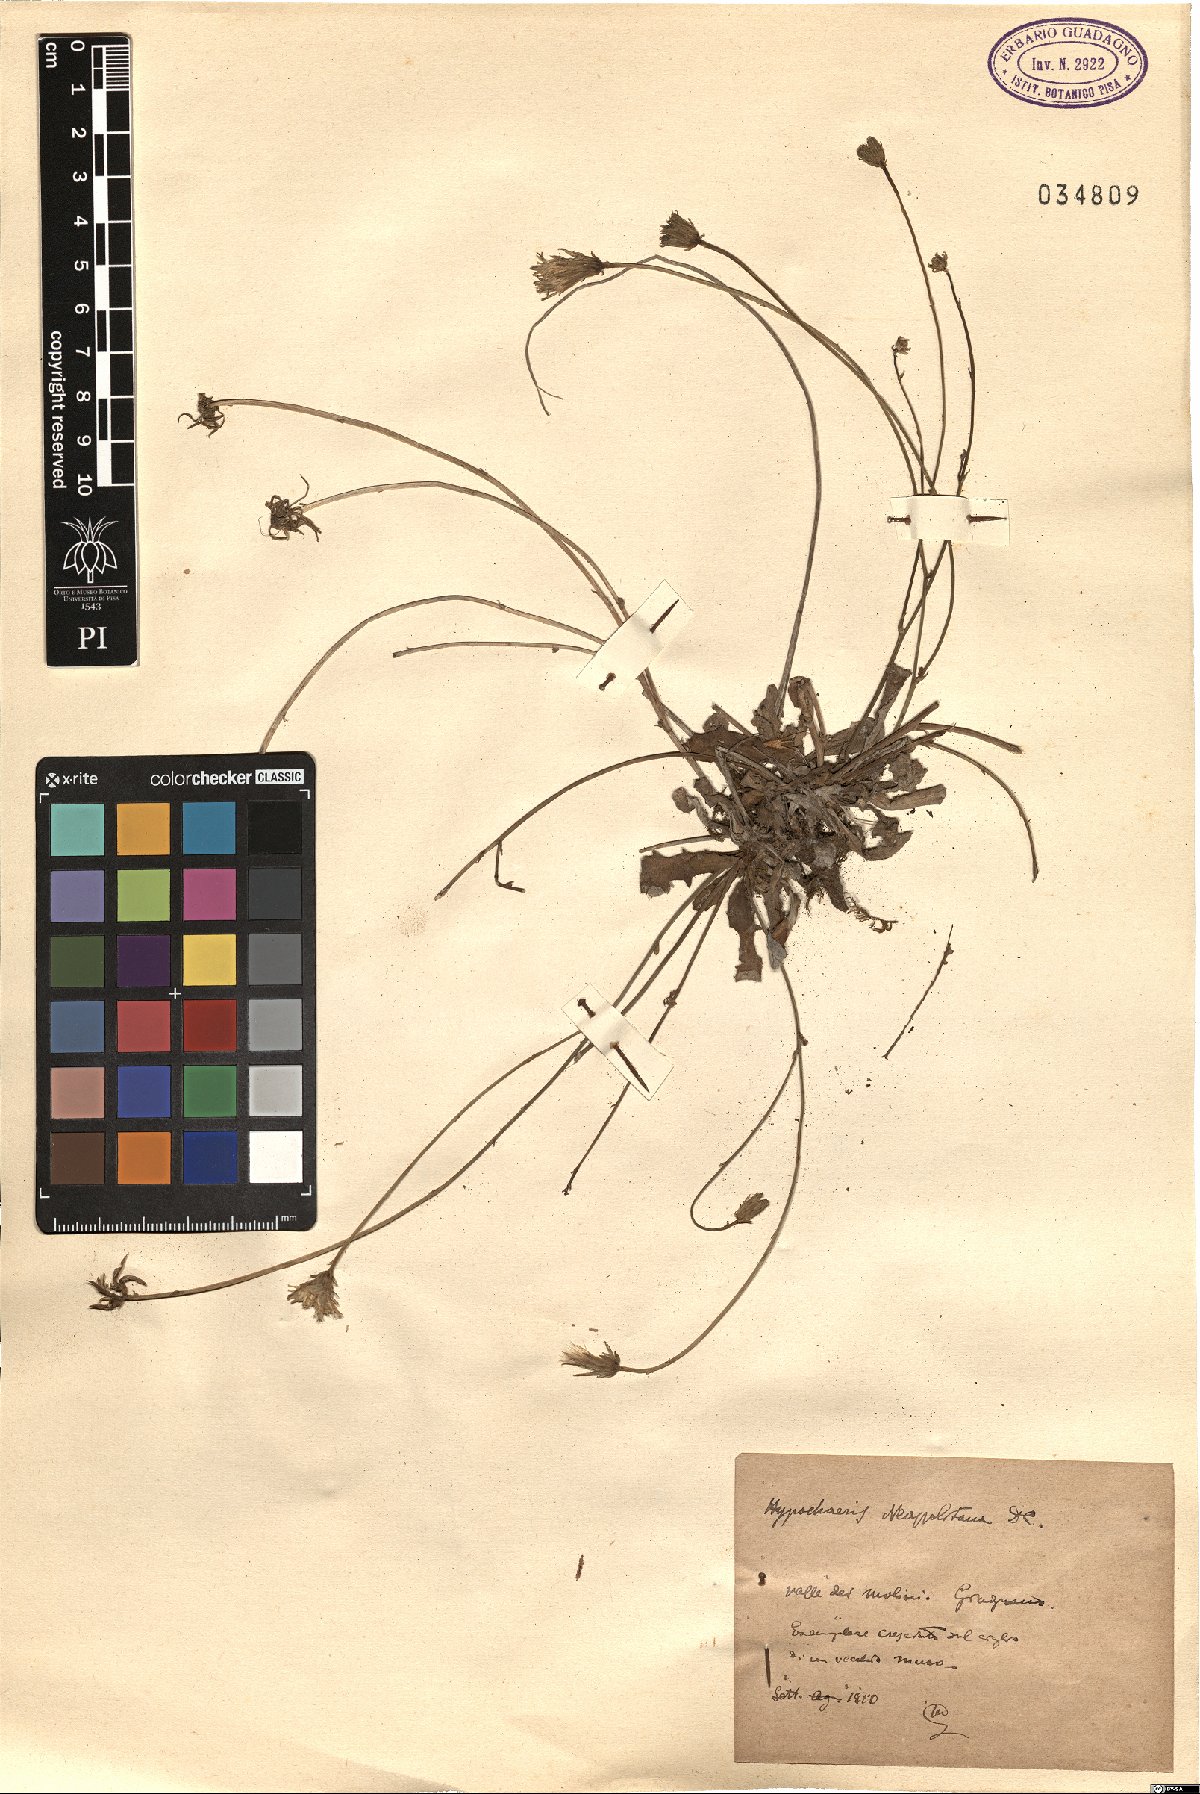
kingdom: Plantae
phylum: Tracheophyta
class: Magnoliopsida
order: Asterales
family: Asteraceae
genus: Hypochaeris
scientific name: Hypochaeris radicata
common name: Flatweed
